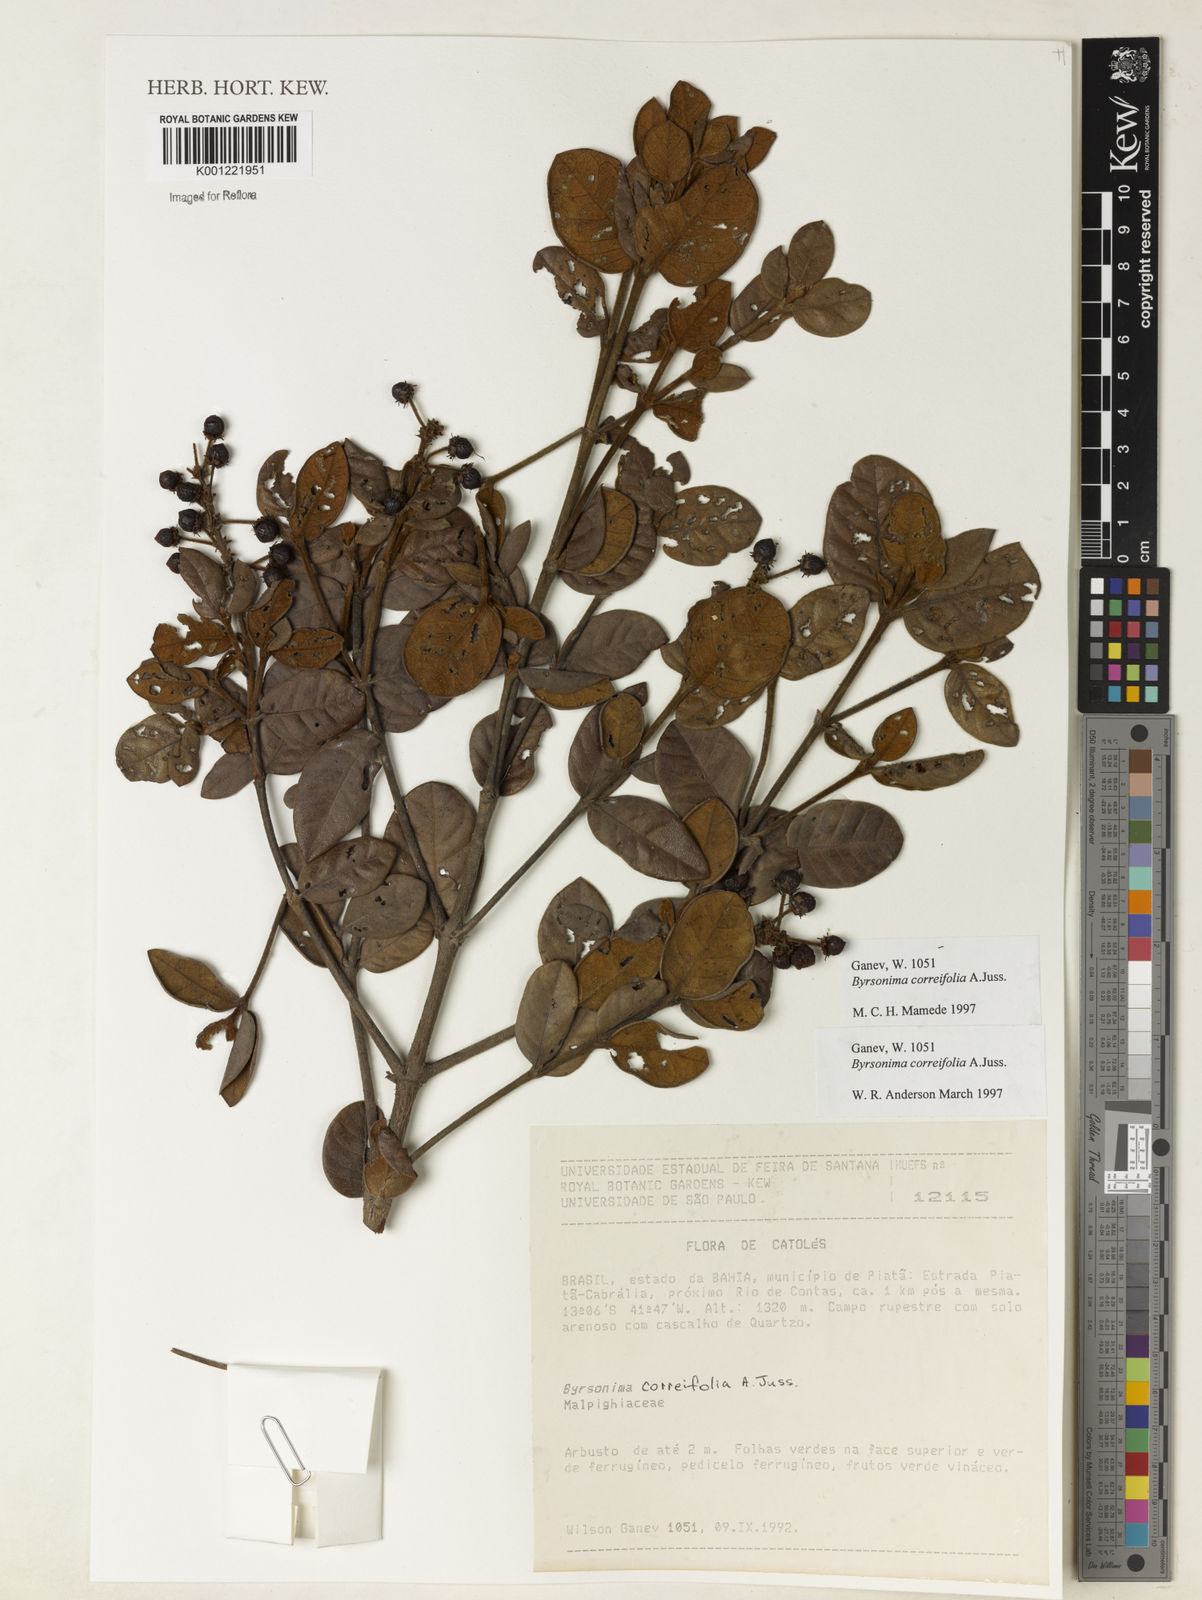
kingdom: Plantae
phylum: Tracheophyta
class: Magnoliopsida
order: Malpighiales
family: Malpighiaceae
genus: Byrsonima
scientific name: Byrsonima correifolia
